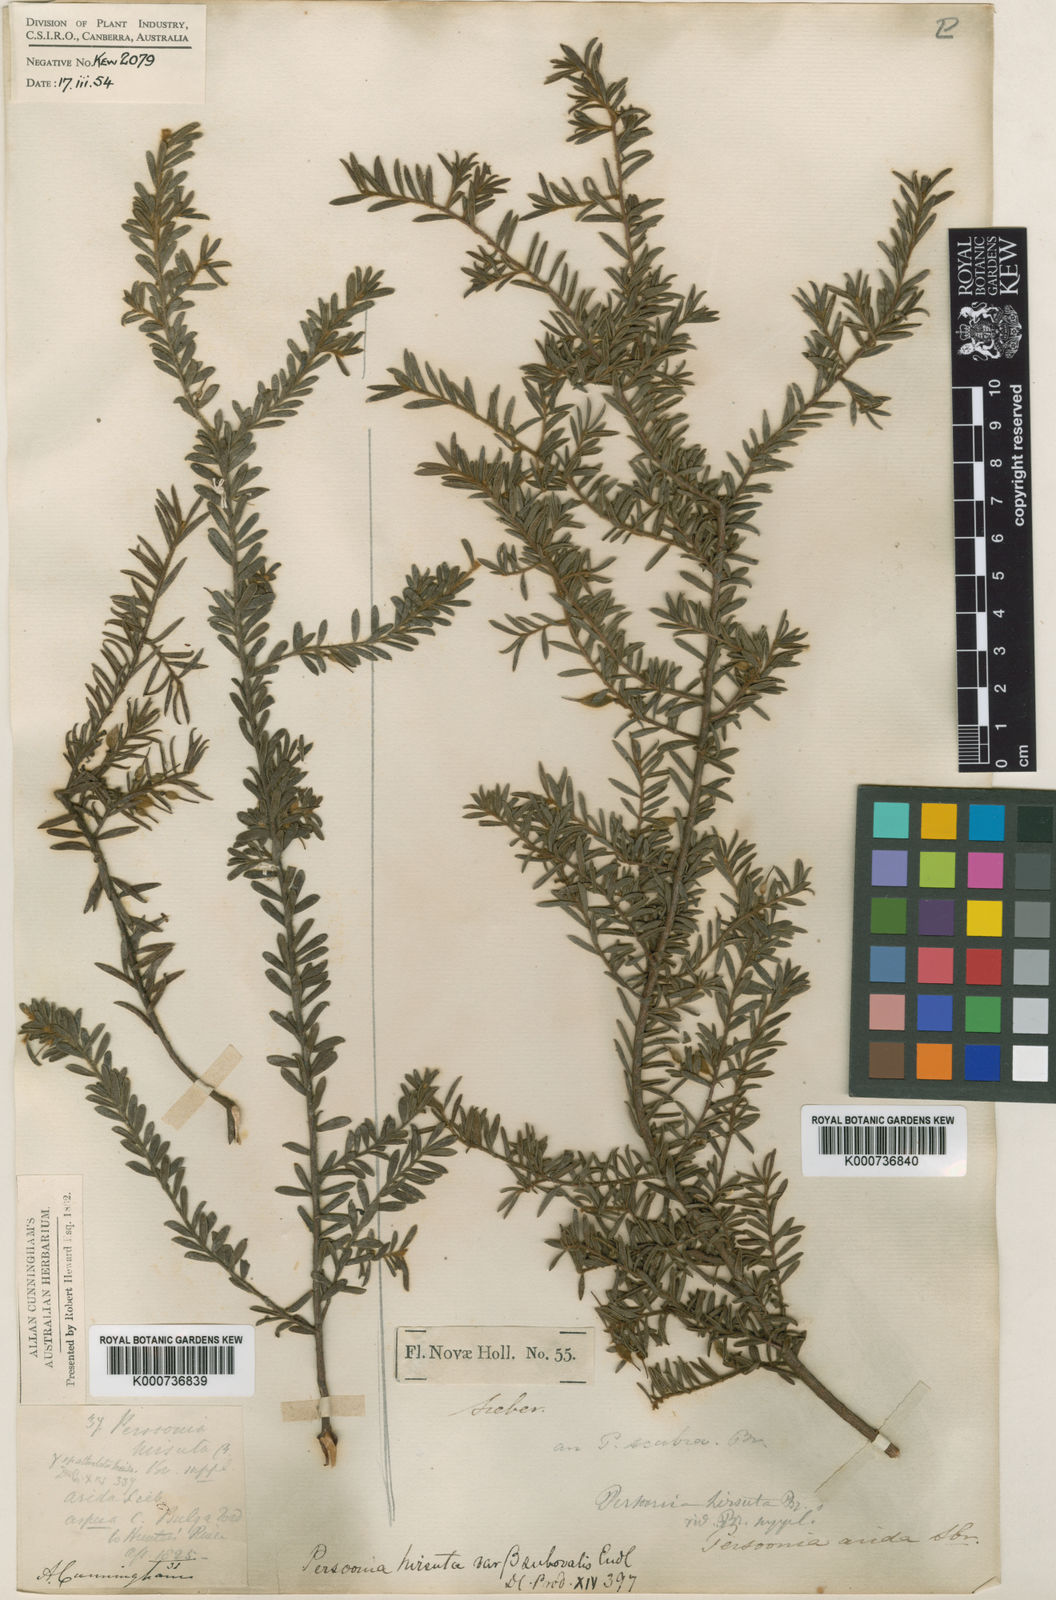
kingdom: Plantae
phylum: Tracheophyta
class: Magnoliopsida
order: Proteales
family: Proteaceae
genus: Persoonia
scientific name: Persoonia hirsuta
